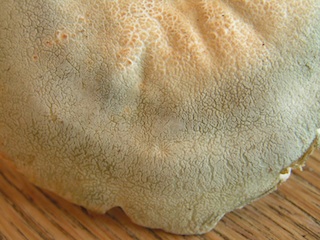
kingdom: Fungi
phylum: Basidiomycota
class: Agaricomycetes
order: Russulales
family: Russulaceae
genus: Russula
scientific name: Russula virescens
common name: spanskgrøn skørhat
